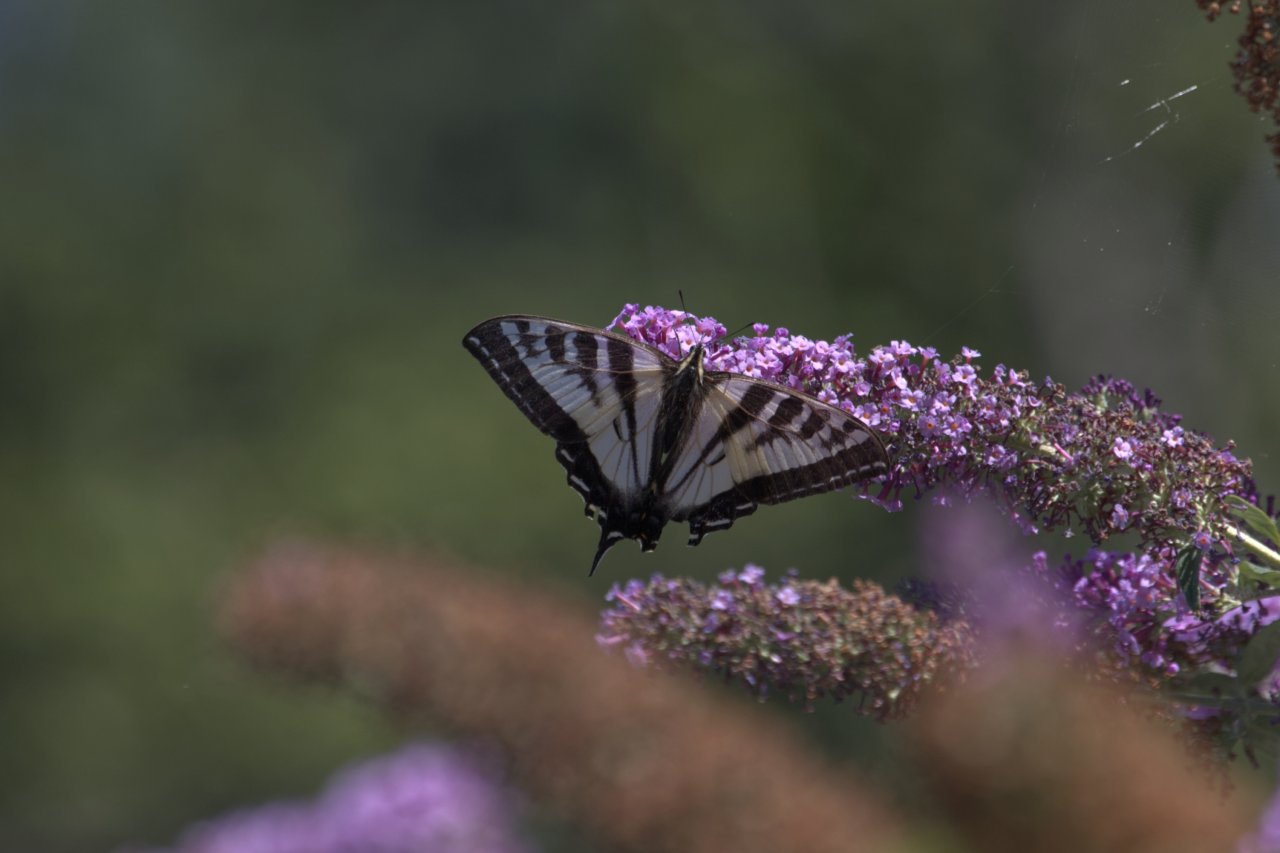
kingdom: Animalia
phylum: Arthropoda
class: Insecta
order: Lepidoptera
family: Papilionidae
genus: Pterourus
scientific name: Pterourus rutulus
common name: Western Tiger Swallowtail
